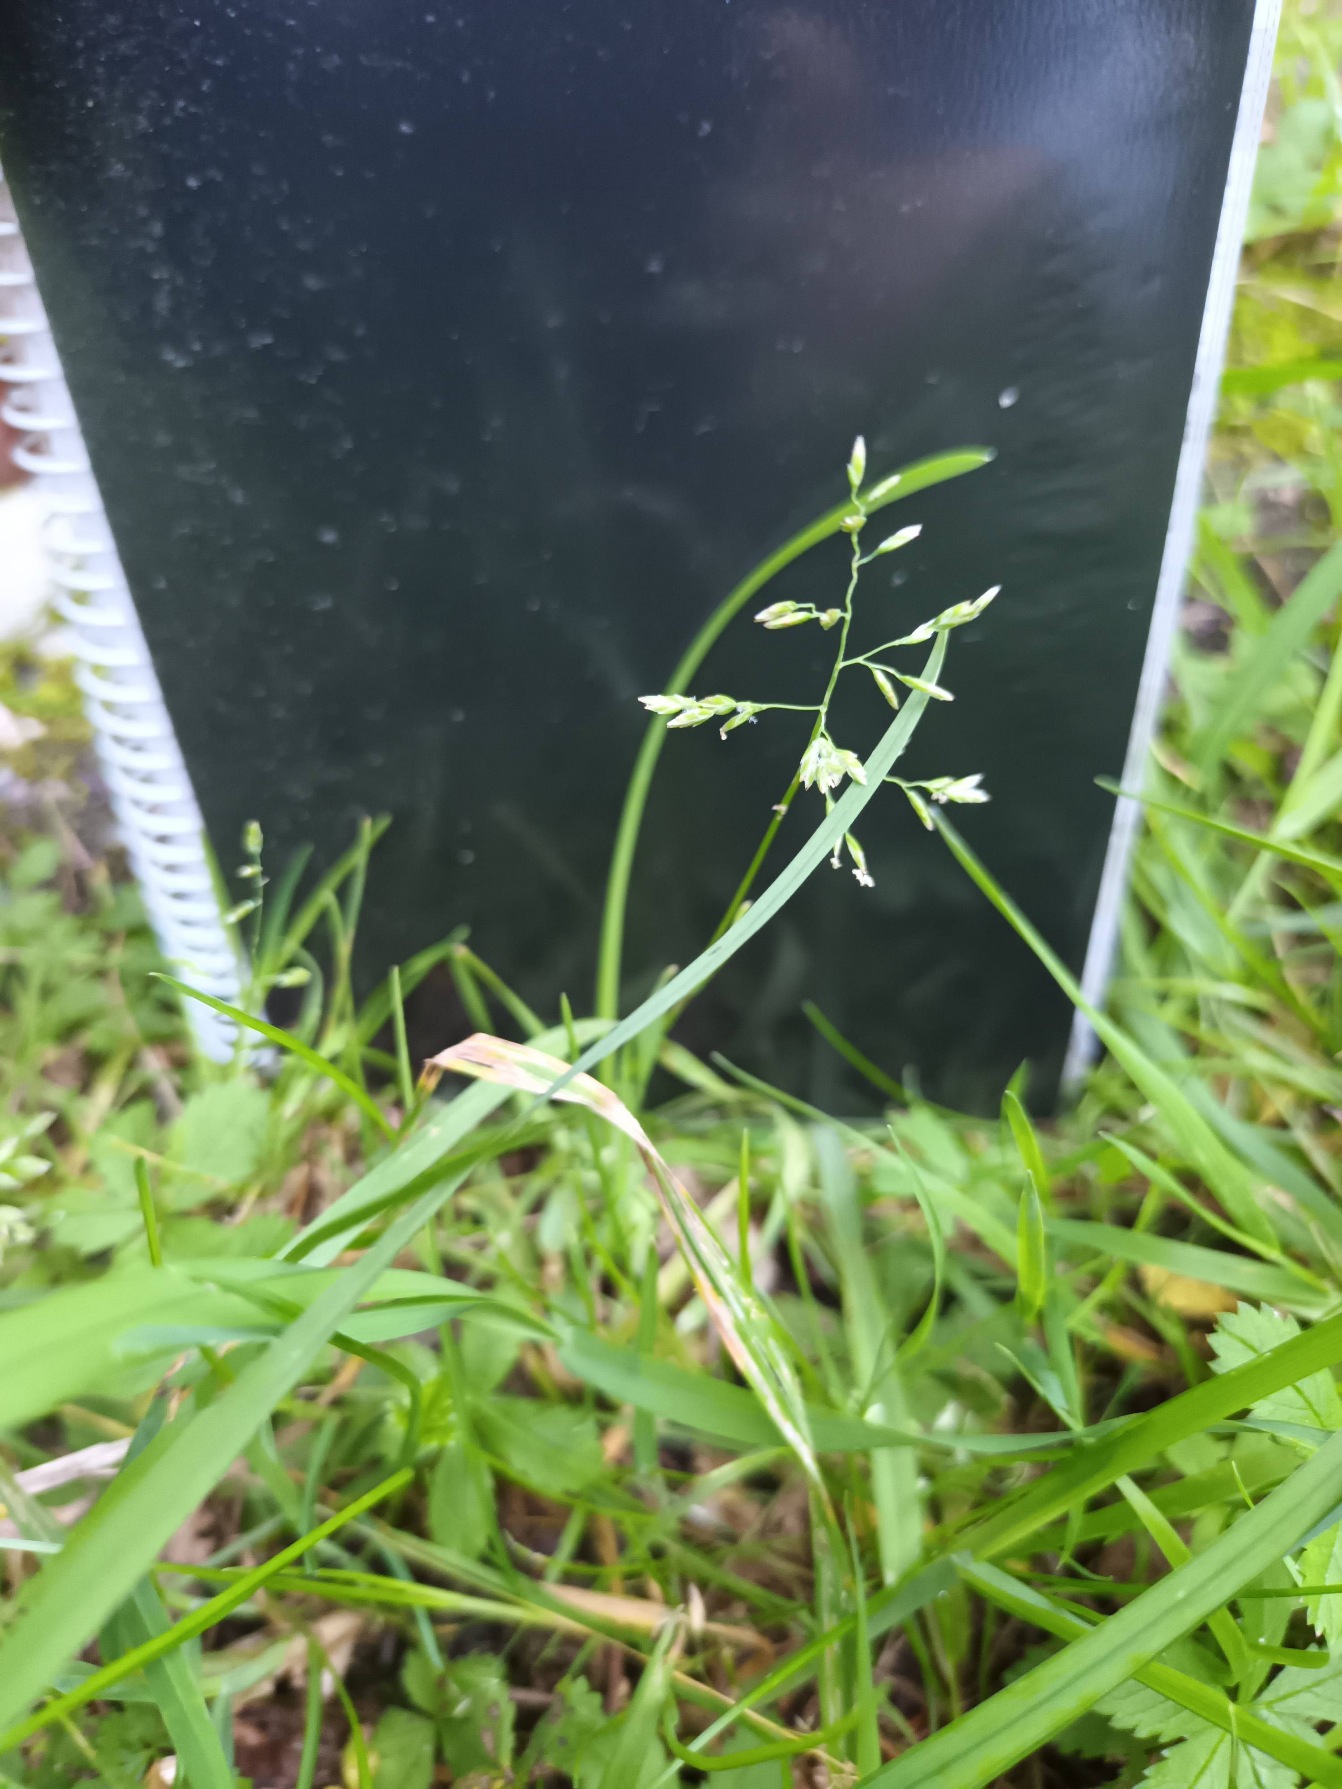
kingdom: Plantae
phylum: Tracheophyta
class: Liliopsida
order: Poales
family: Poaceae
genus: Poa
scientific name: Poa annua
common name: Enårig rapgræs
